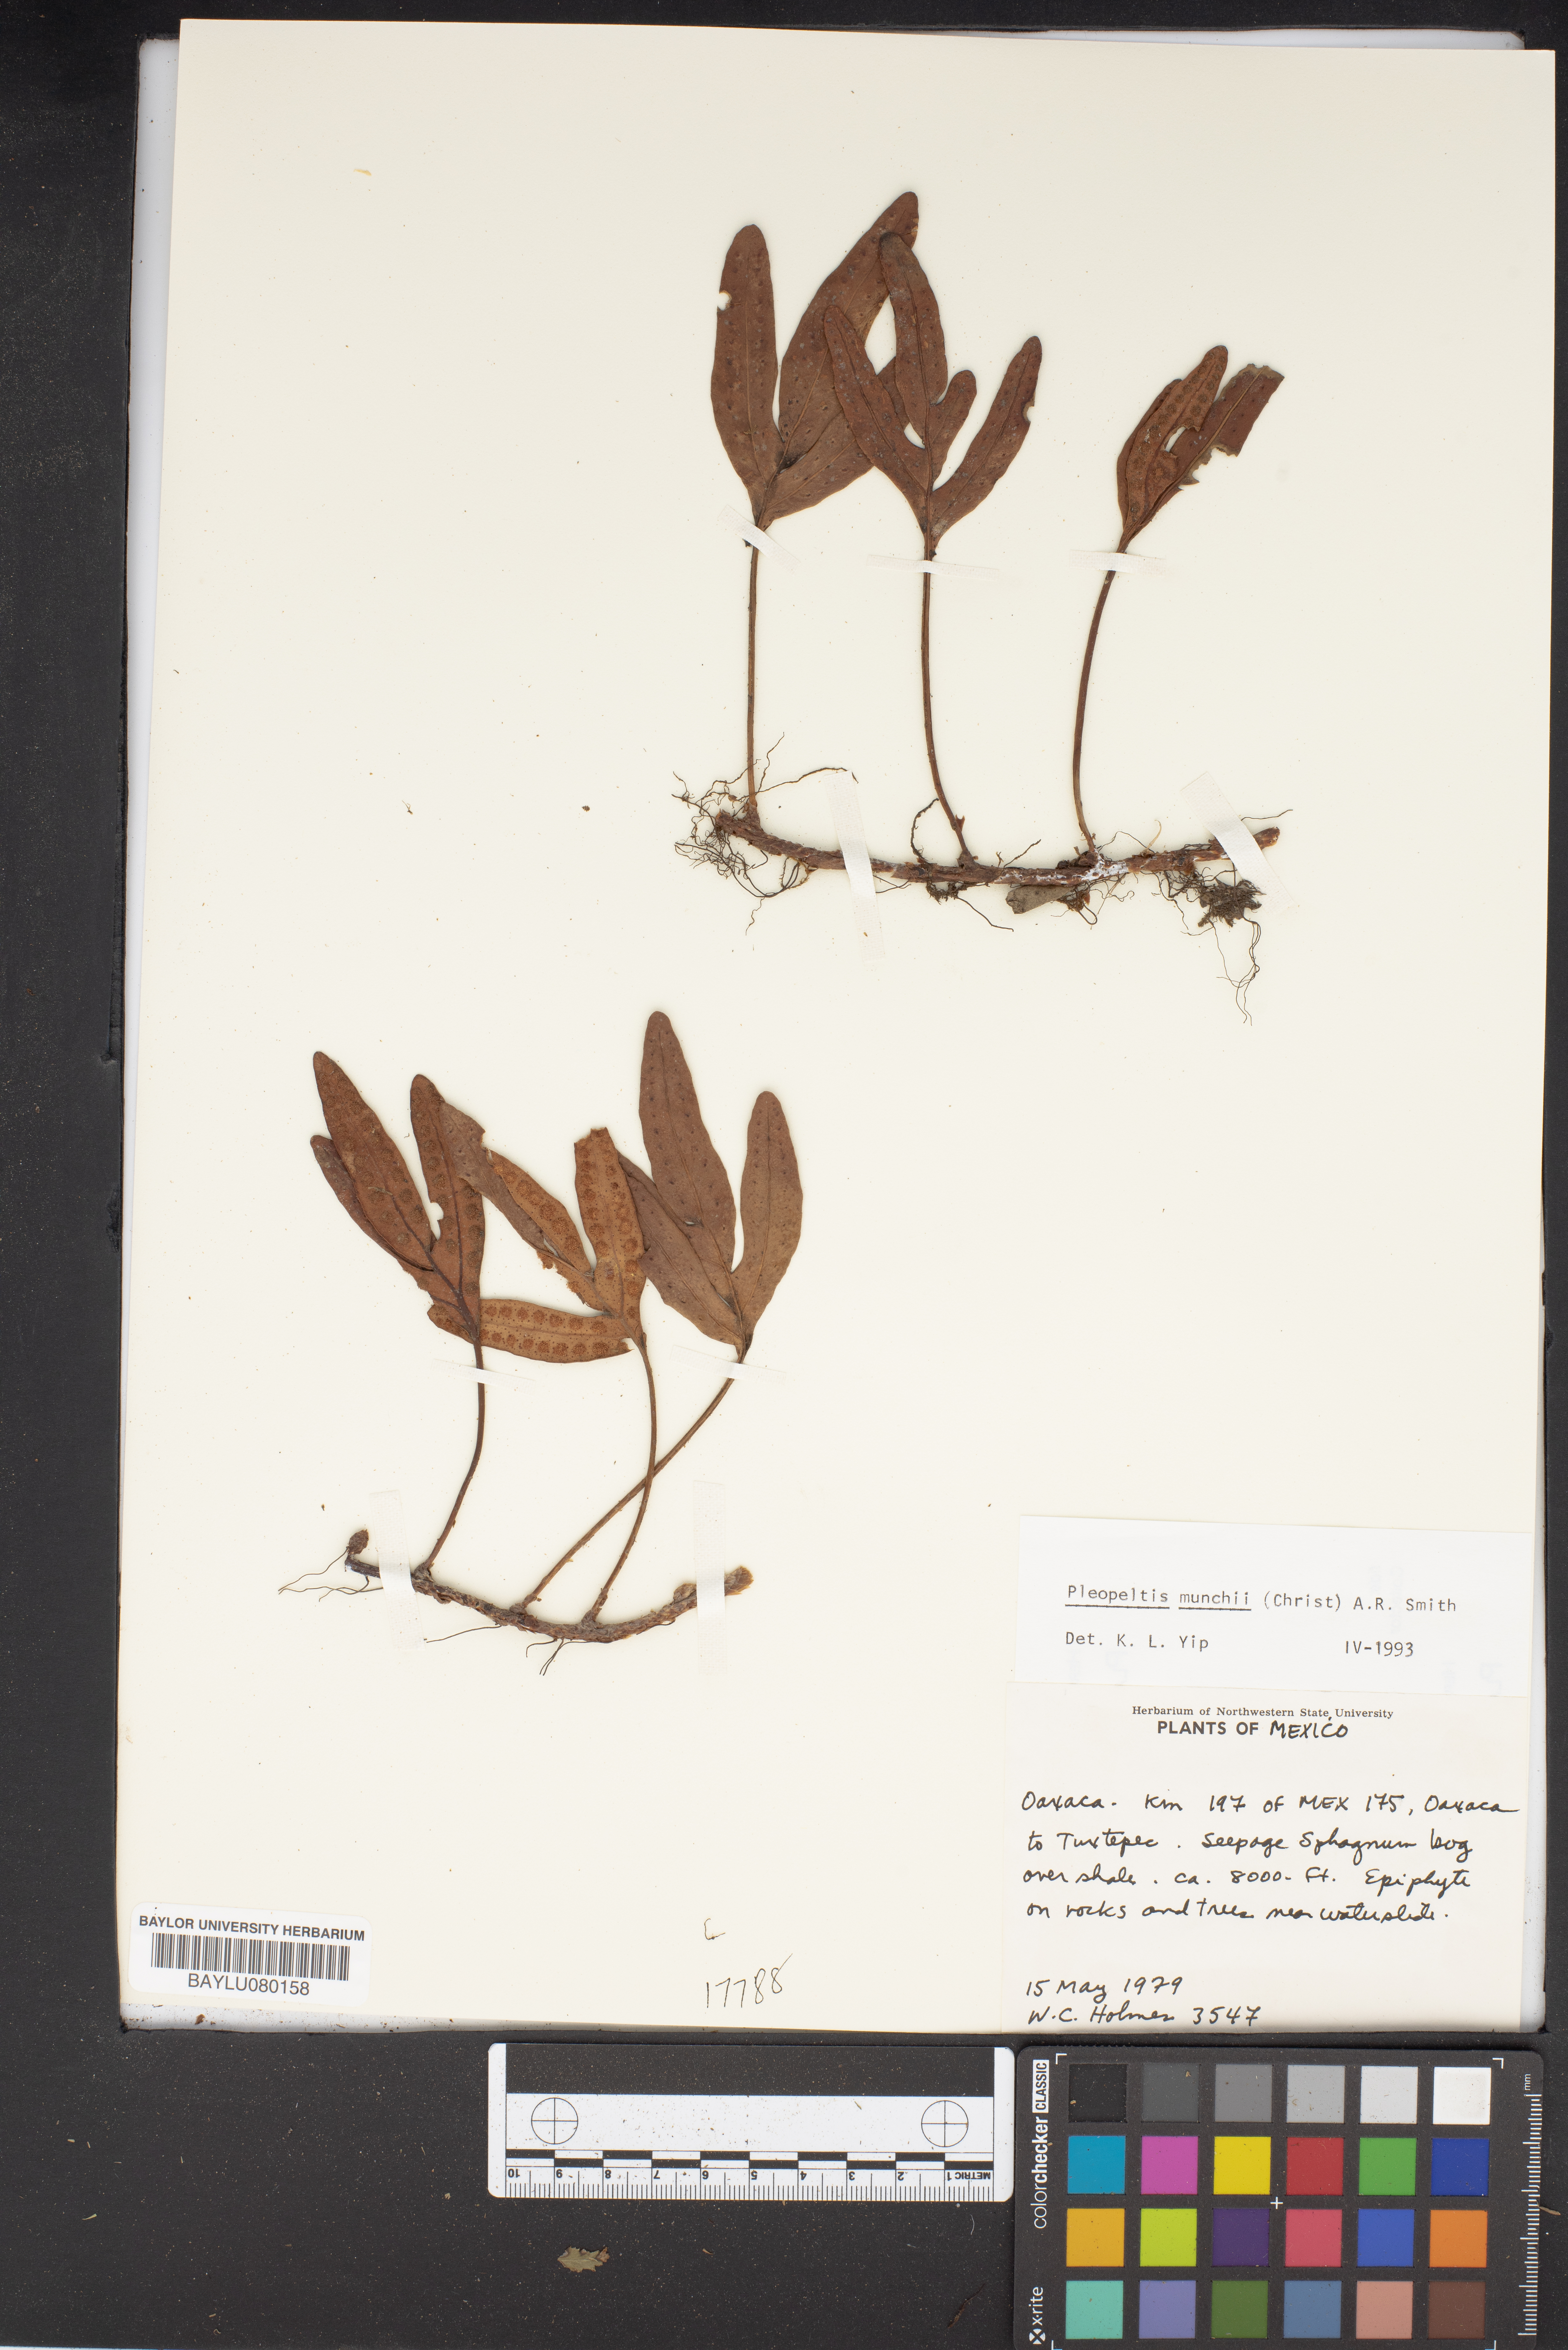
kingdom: Plantae
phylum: Tracheophyta
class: Polypodiopsida
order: Polypodiales
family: Polypodiaceae
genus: Pleopeltis
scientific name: Pleopeltis muenchii
